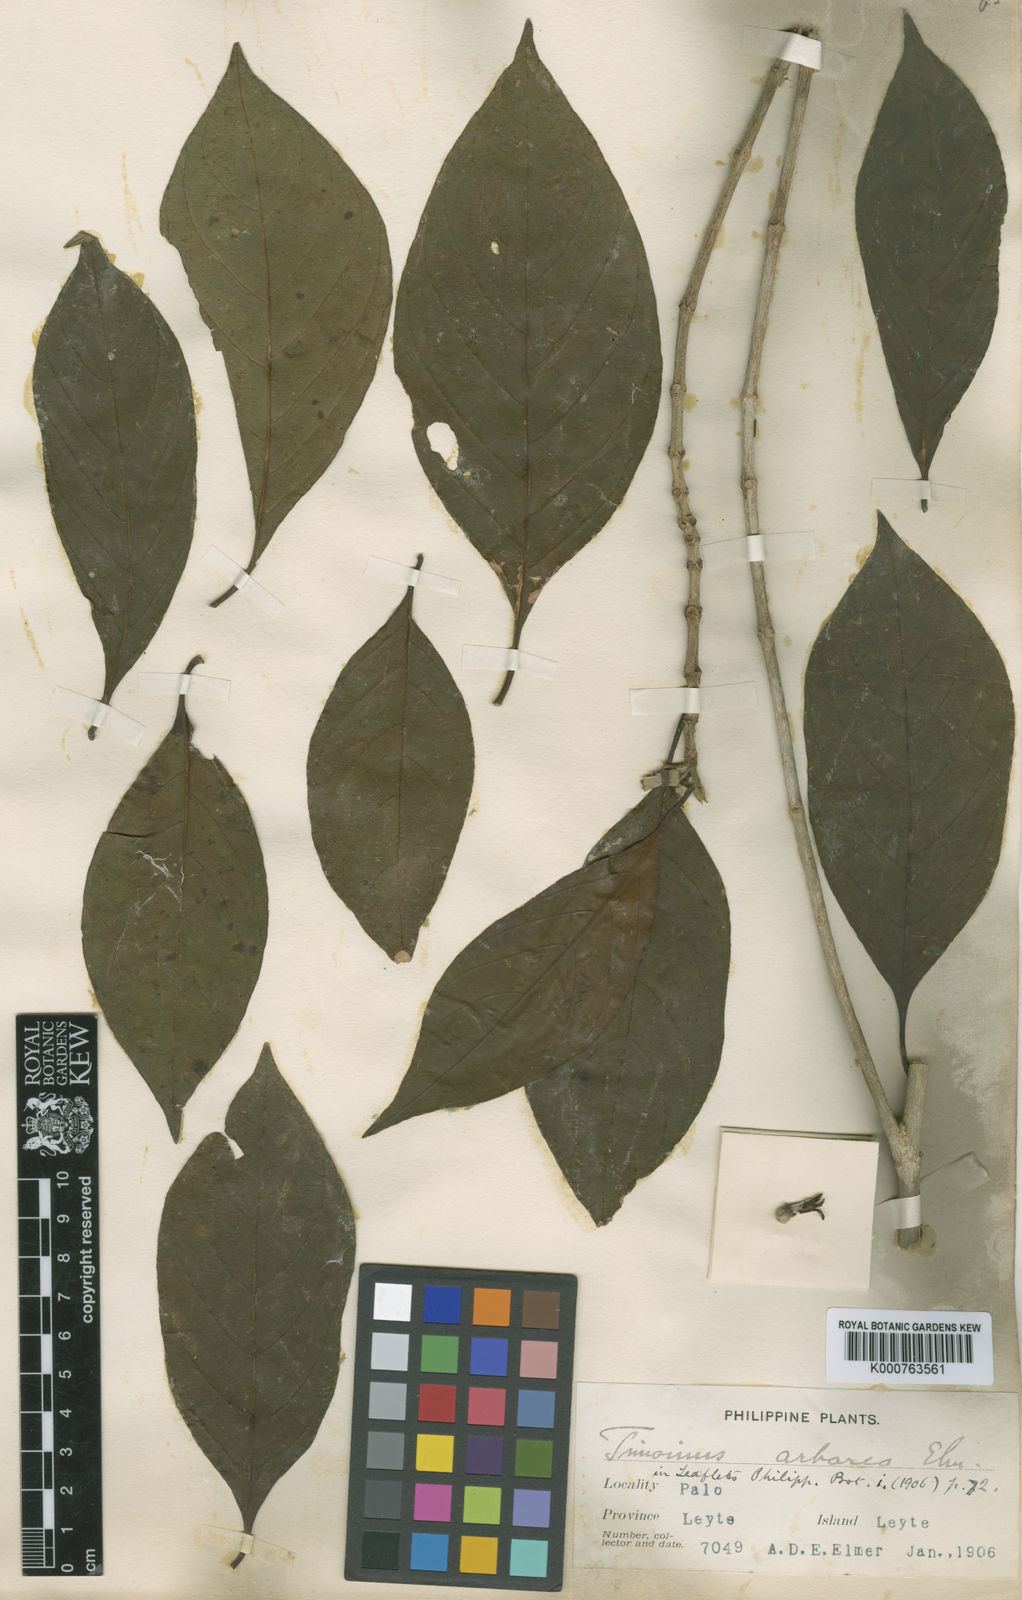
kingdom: Plantae
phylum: Tracheophyta
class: Magnoliopsida
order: Gentianales
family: Rubiaceae
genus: Timonius
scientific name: Timonius arboreus
